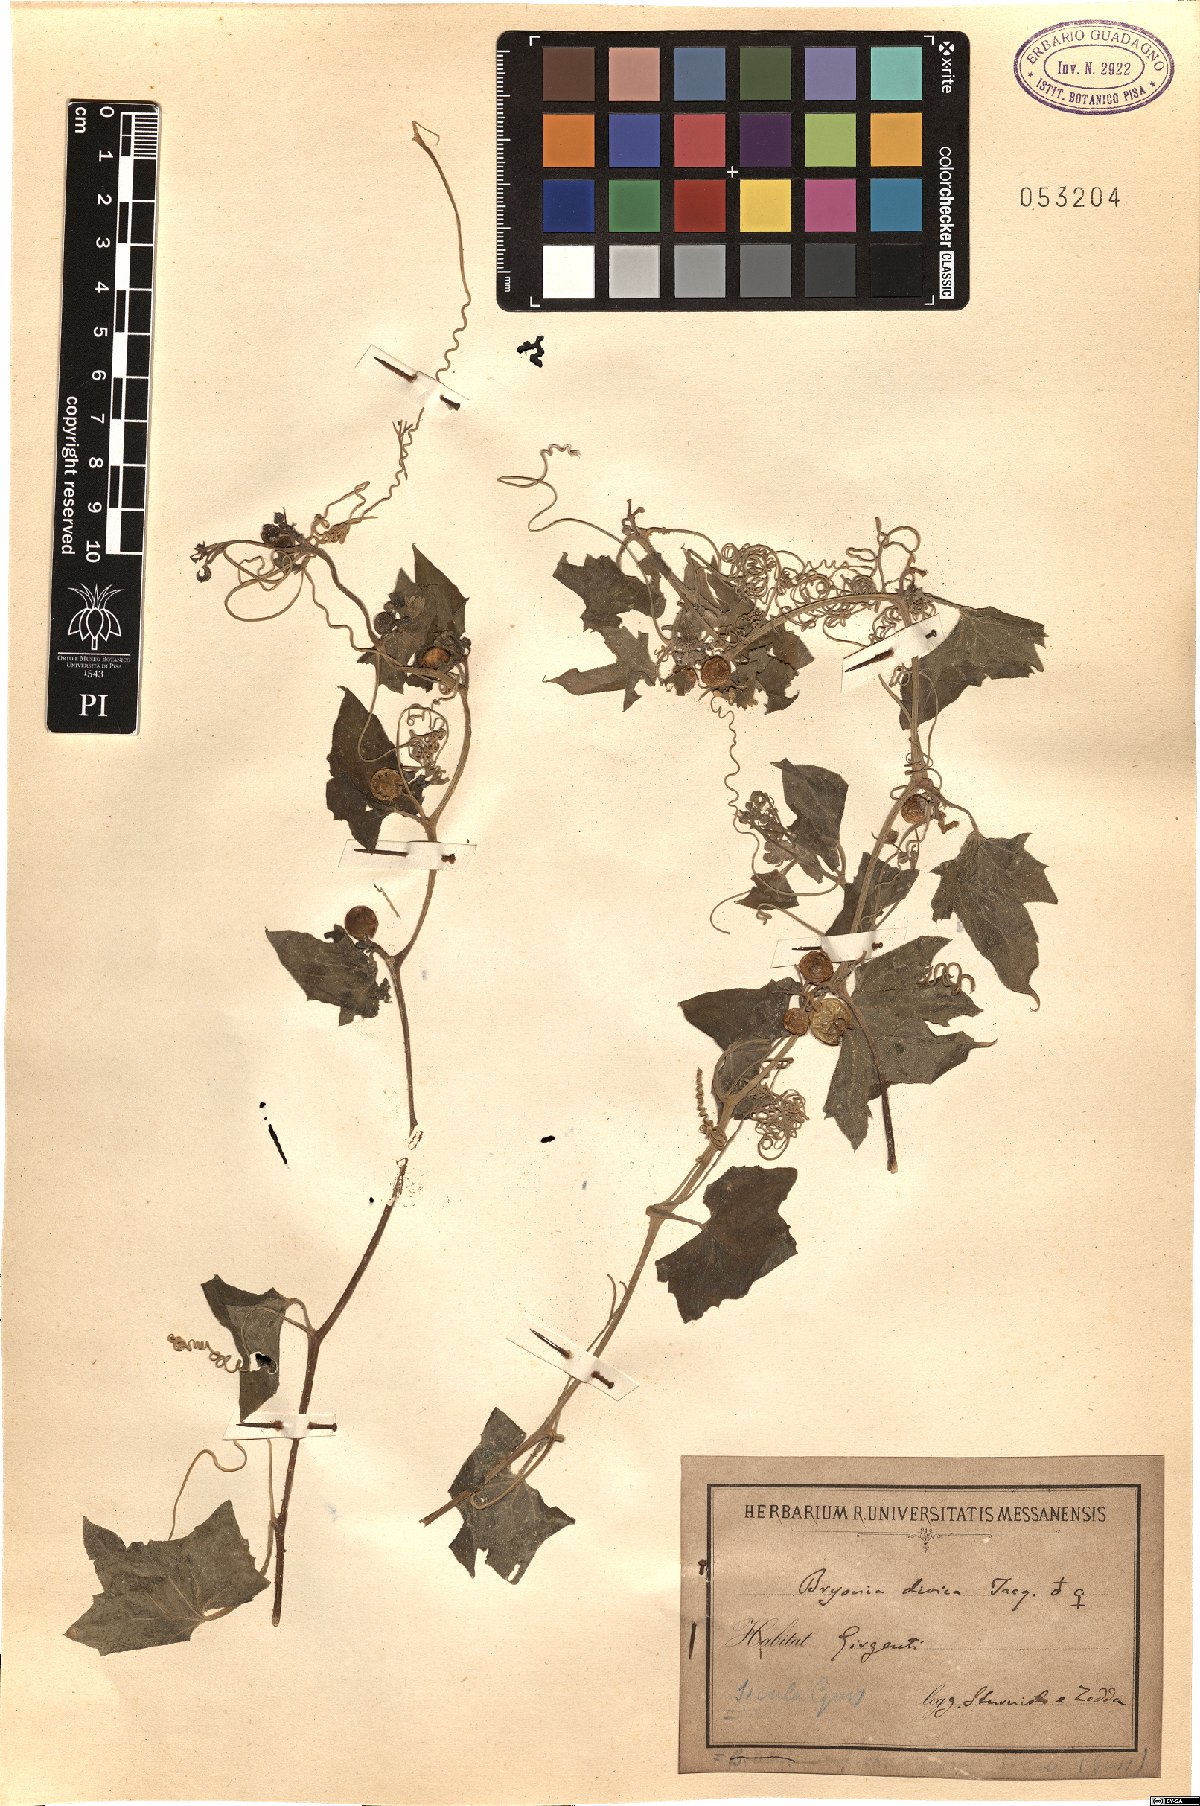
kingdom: Plantae
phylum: Tracheophyta
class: Magnoliopsida
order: Cucurbitales
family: Cucurbitaceae
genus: Bryonia
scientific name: Bryonia dioica
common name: White bryony
